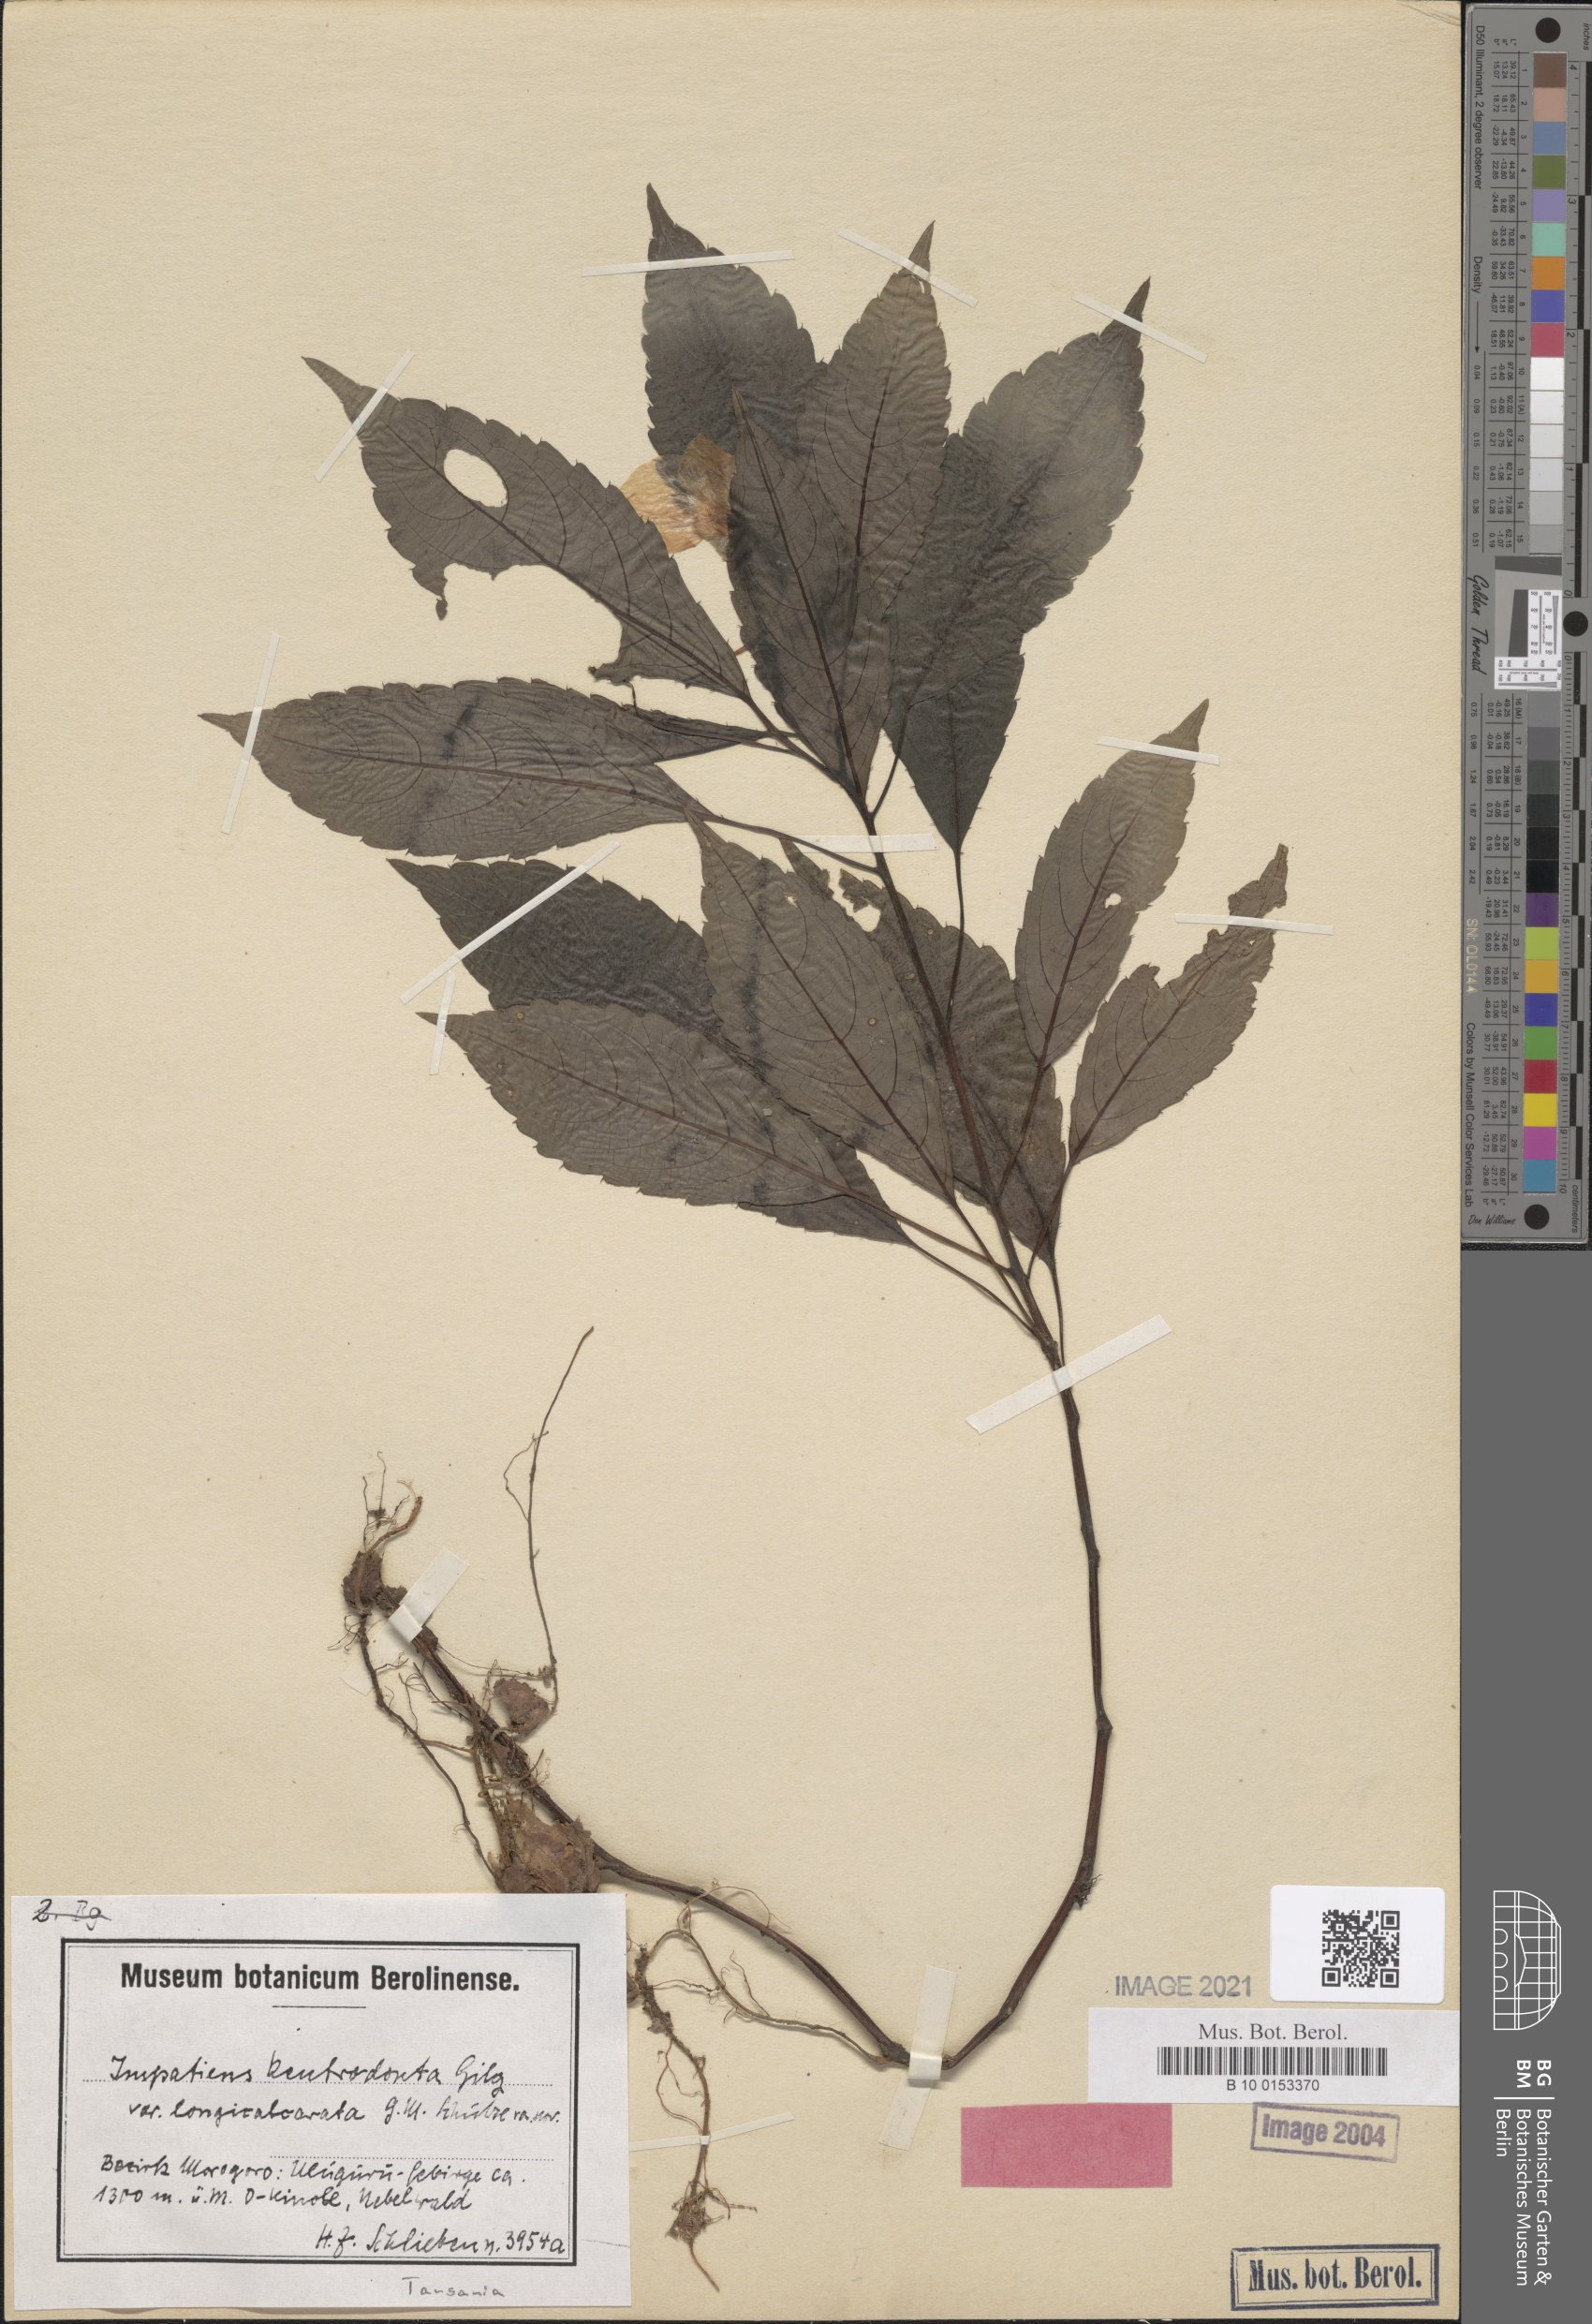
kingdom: Plantae
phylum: Tracheophyta
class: Magnoliopsida
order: Ericales
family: Balsaminaceae
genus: Impatiens
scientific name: Impatiens kentrodonta
